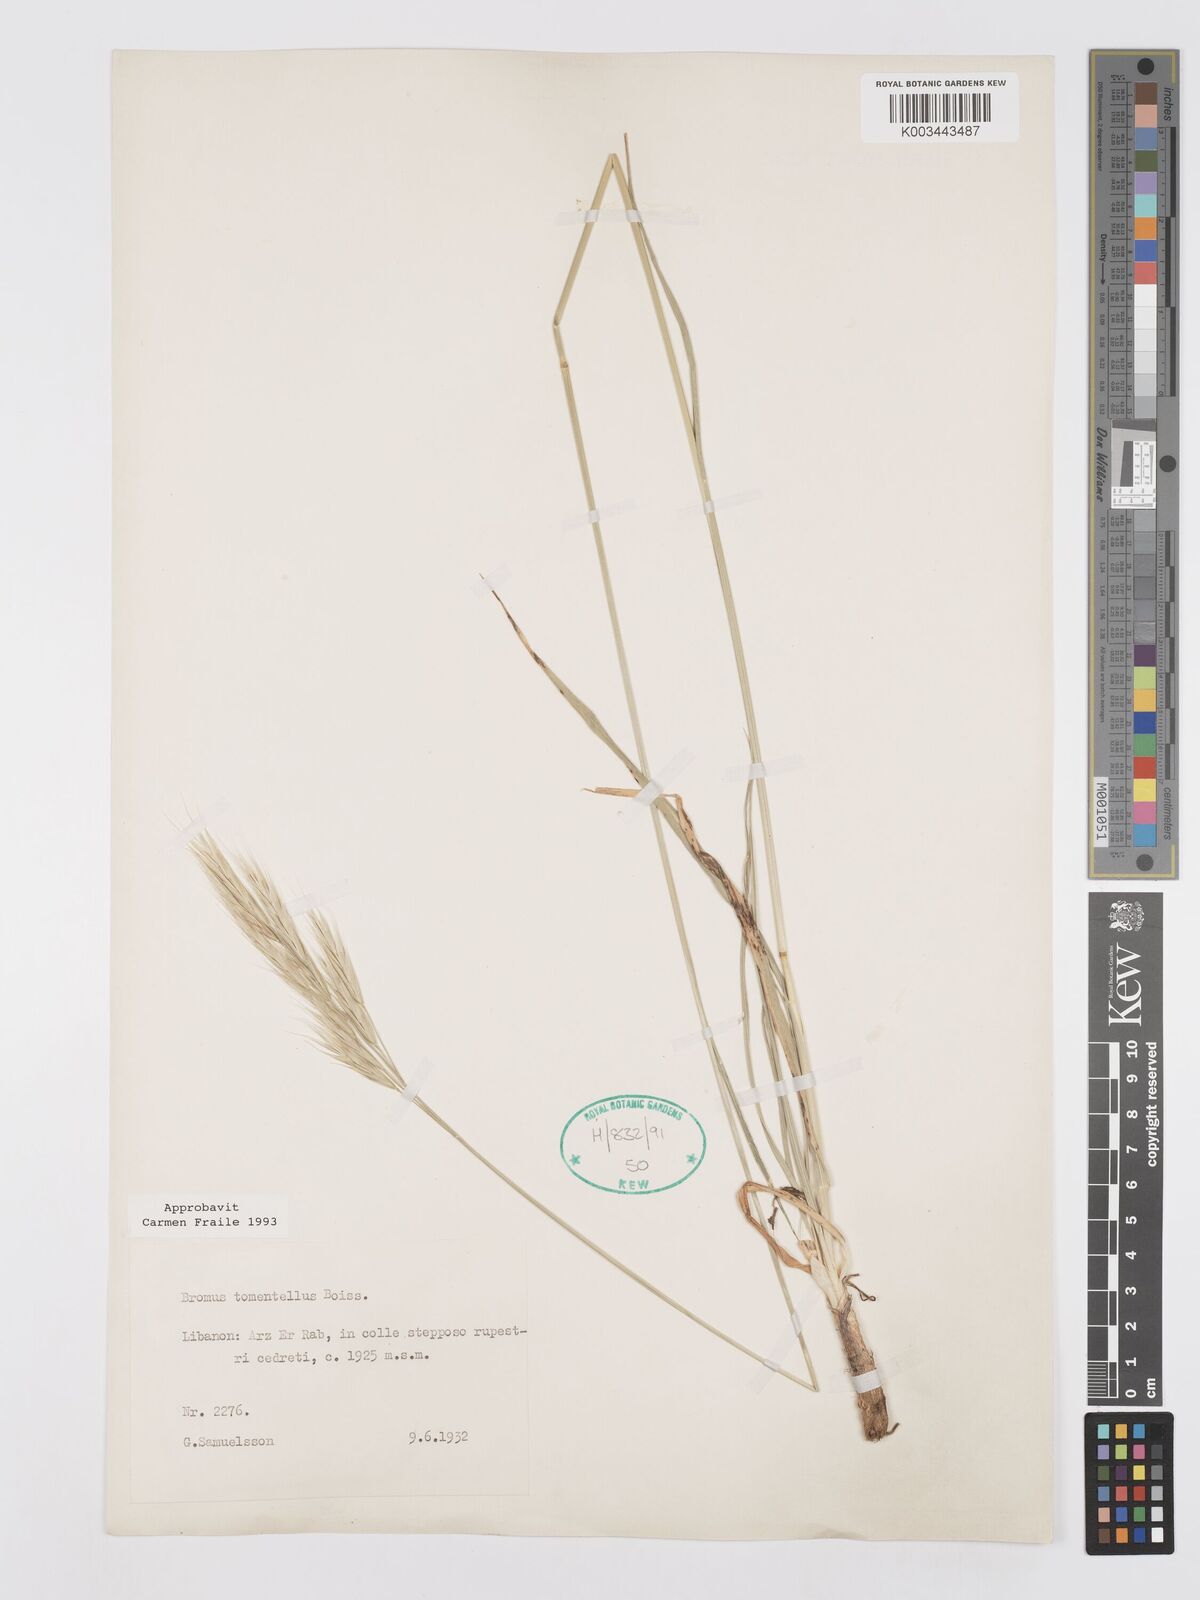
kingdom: Plantae
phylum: Tracheophyta
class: Liliopsida
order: Poales
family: Poaceae
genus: Bromus
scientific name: Bromus tomentellus
